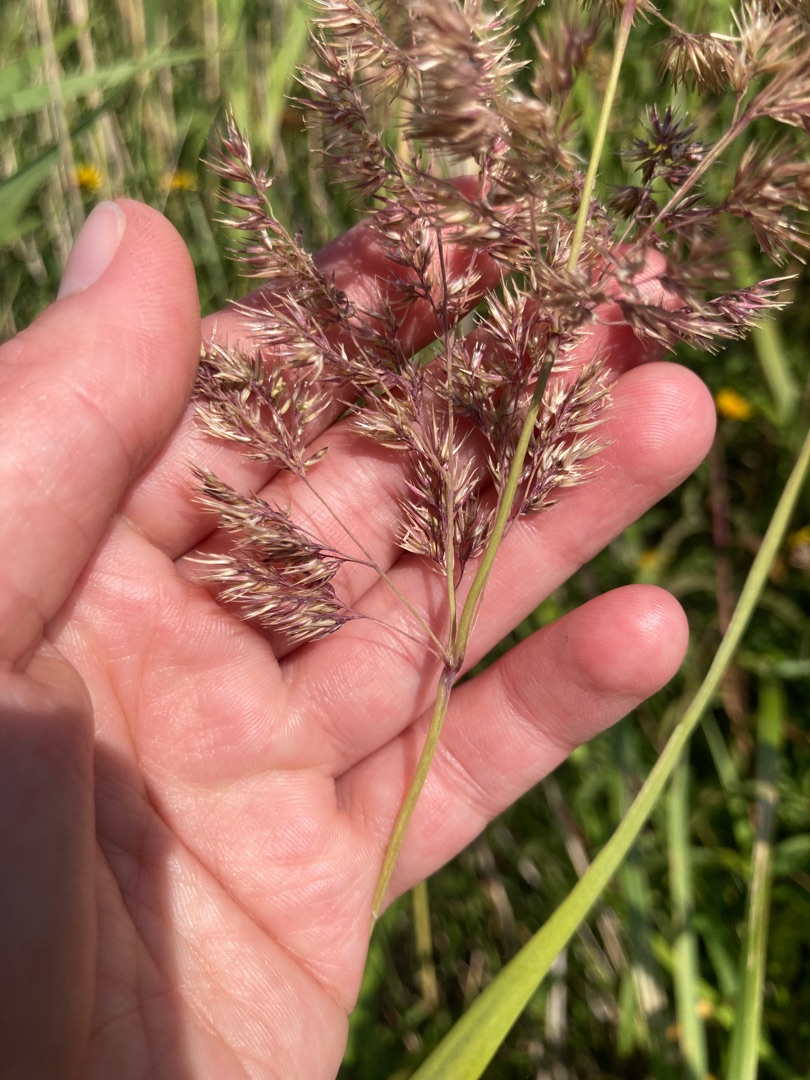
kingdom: Plantae
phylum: Tracheophyta
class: Liliopsida
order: Poales
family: Poaceae
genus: Calamagrostis
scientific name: Calamagrostis epigejos
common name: Bjerg-rørhvene
